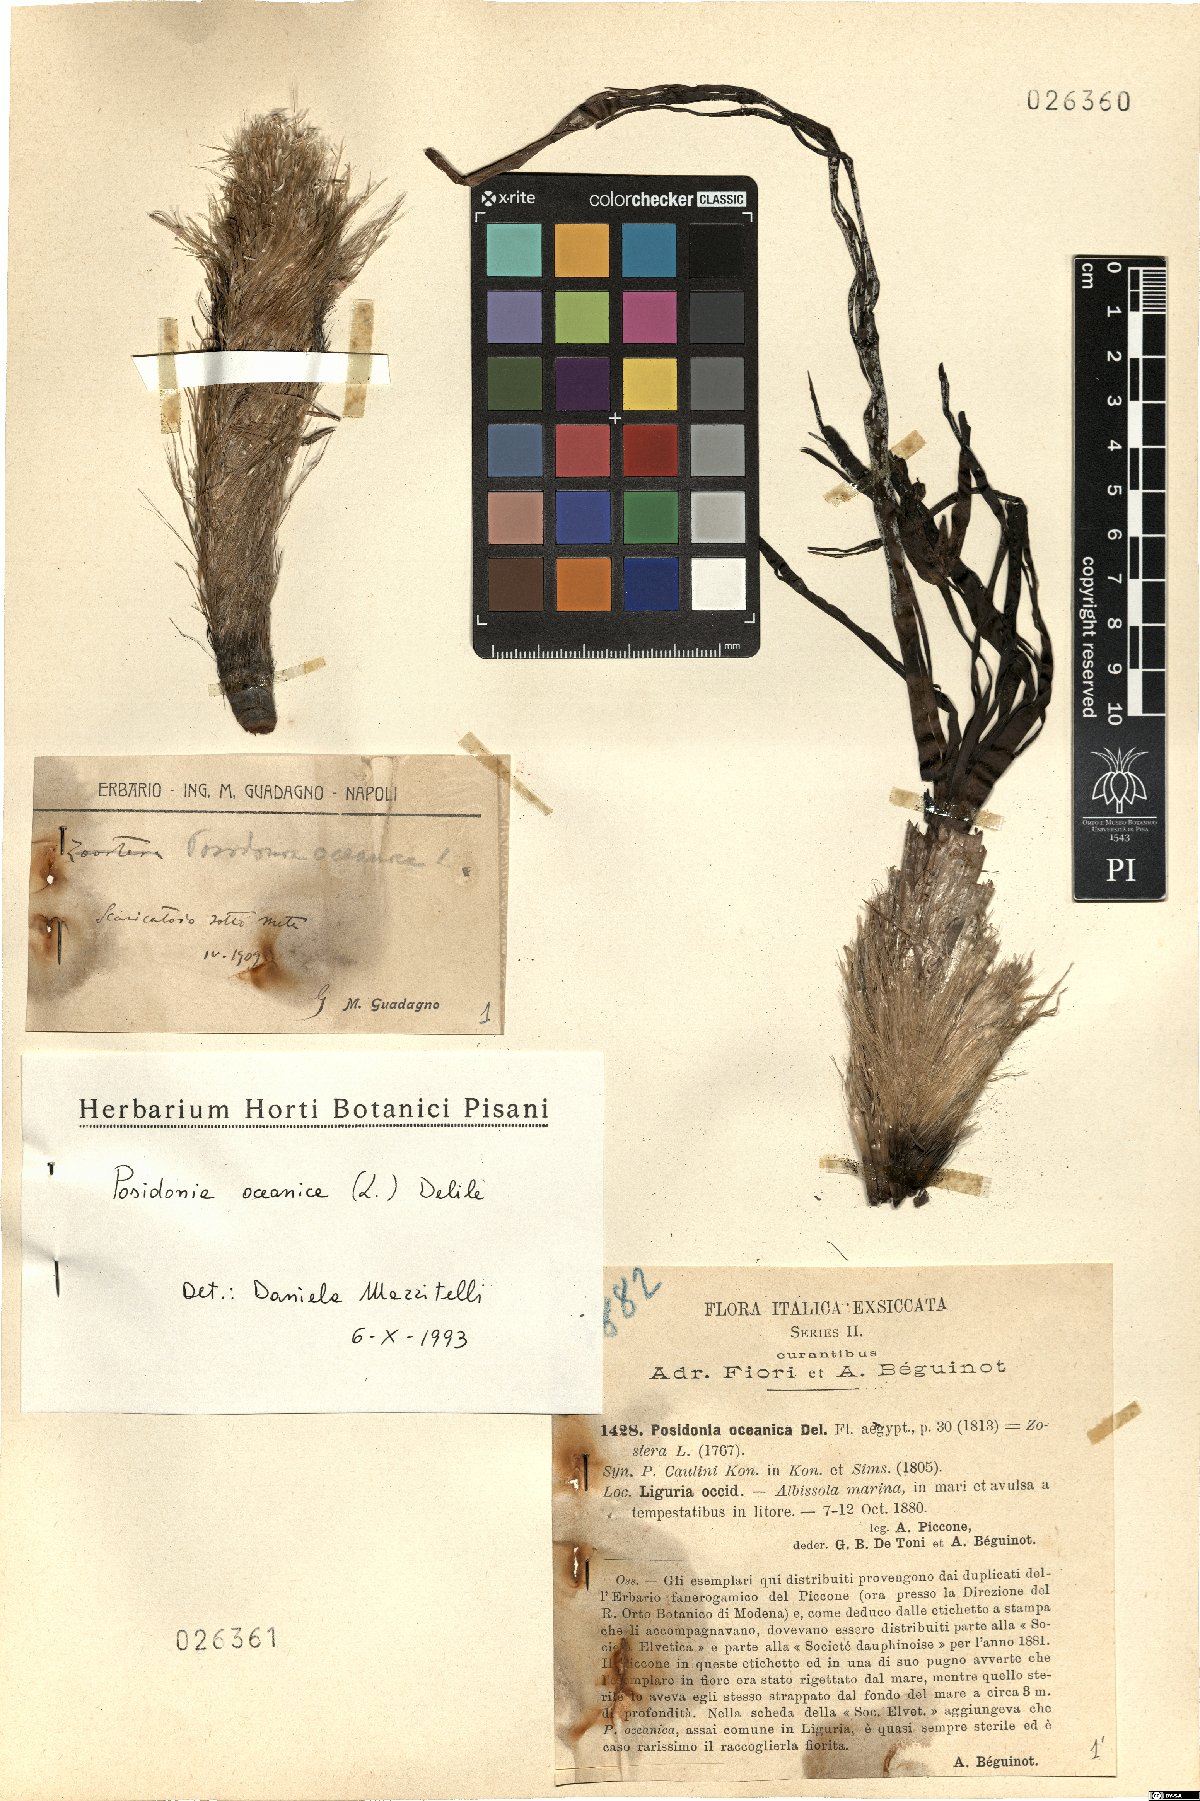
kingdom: Plantae
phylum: Tracheophyta
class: Liliopsida
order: Alismatales
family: Posidoniaceae
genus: Posidonia
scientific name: Posidonia oceanica
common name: Mediterranean tapeweed
